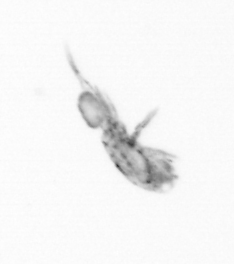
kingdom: Animalia
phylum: Arthropoda
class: Copepoda
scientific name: Copepoda
